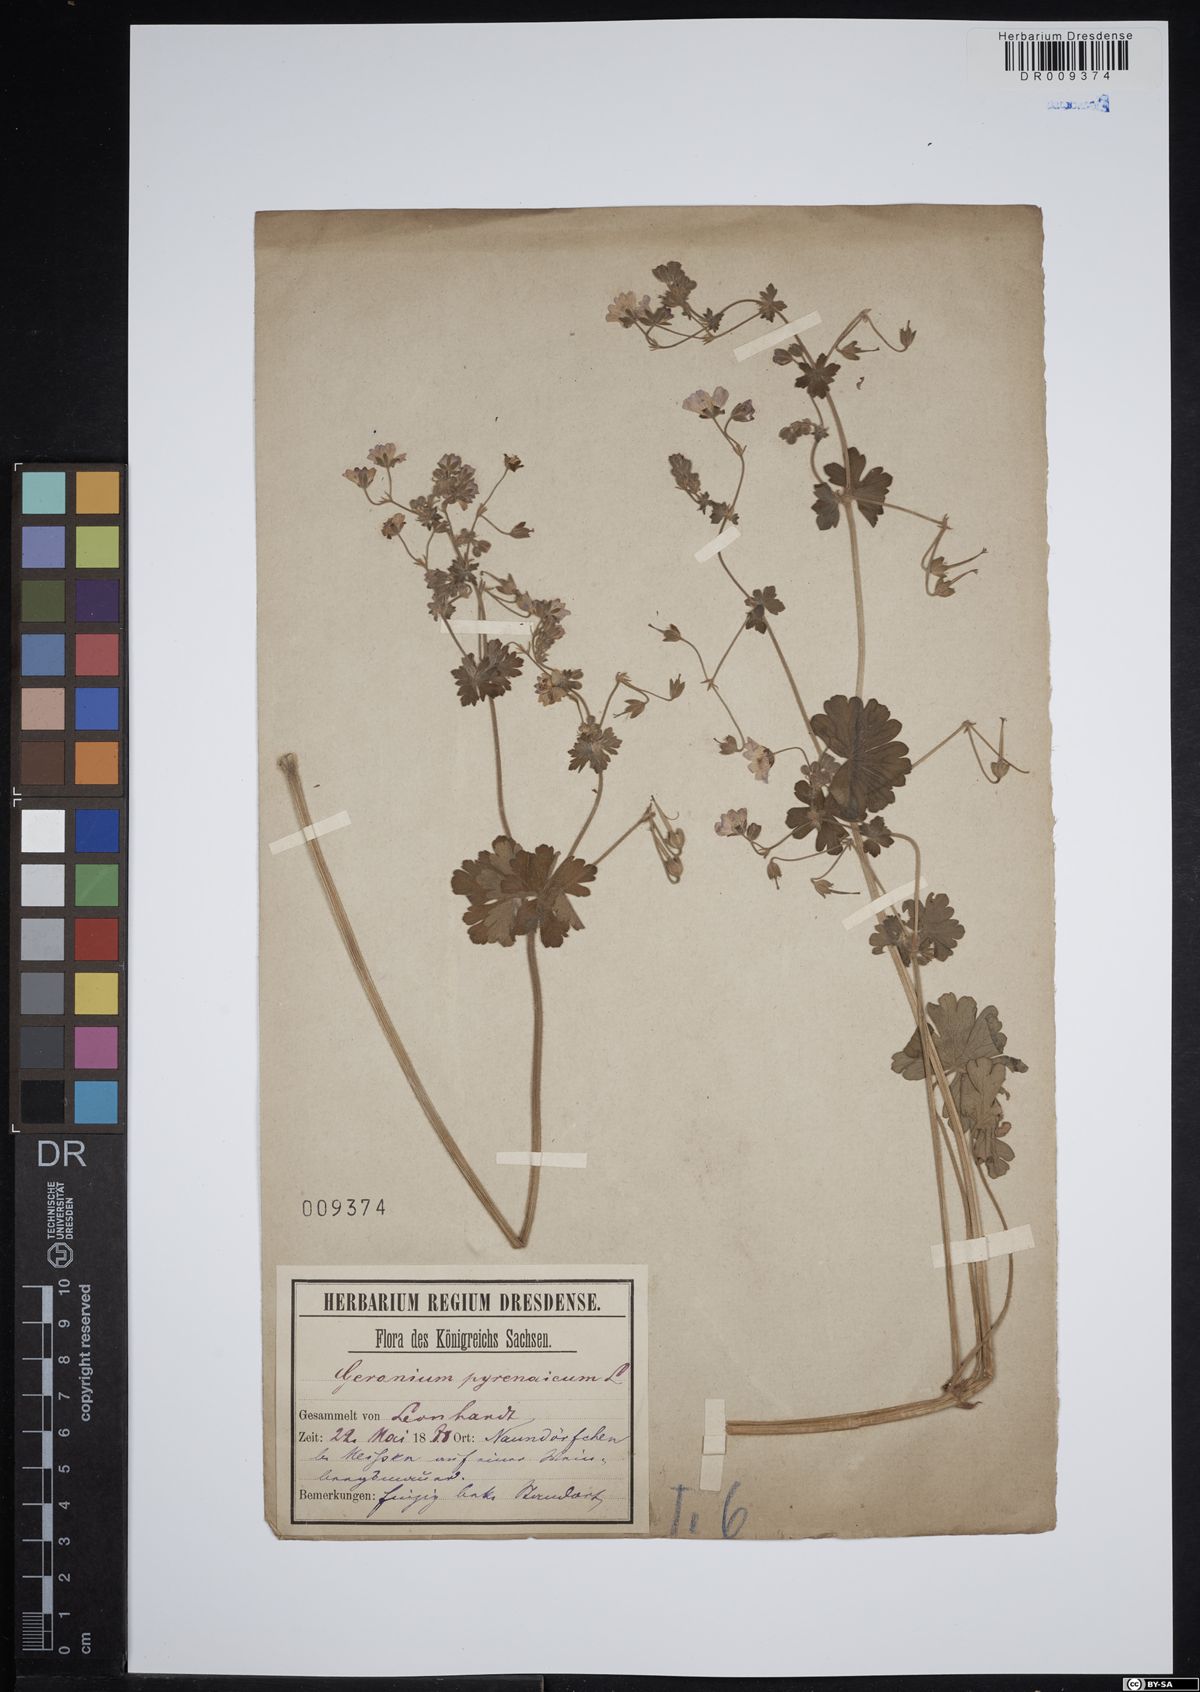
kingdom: Plantae
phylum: Tracheophyta
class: Magnoliopsida
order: Geraniales
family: Geraniaceae
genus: Geranium
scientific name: Geranium pyrenaicum
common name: Hedgerow crane's-bill
